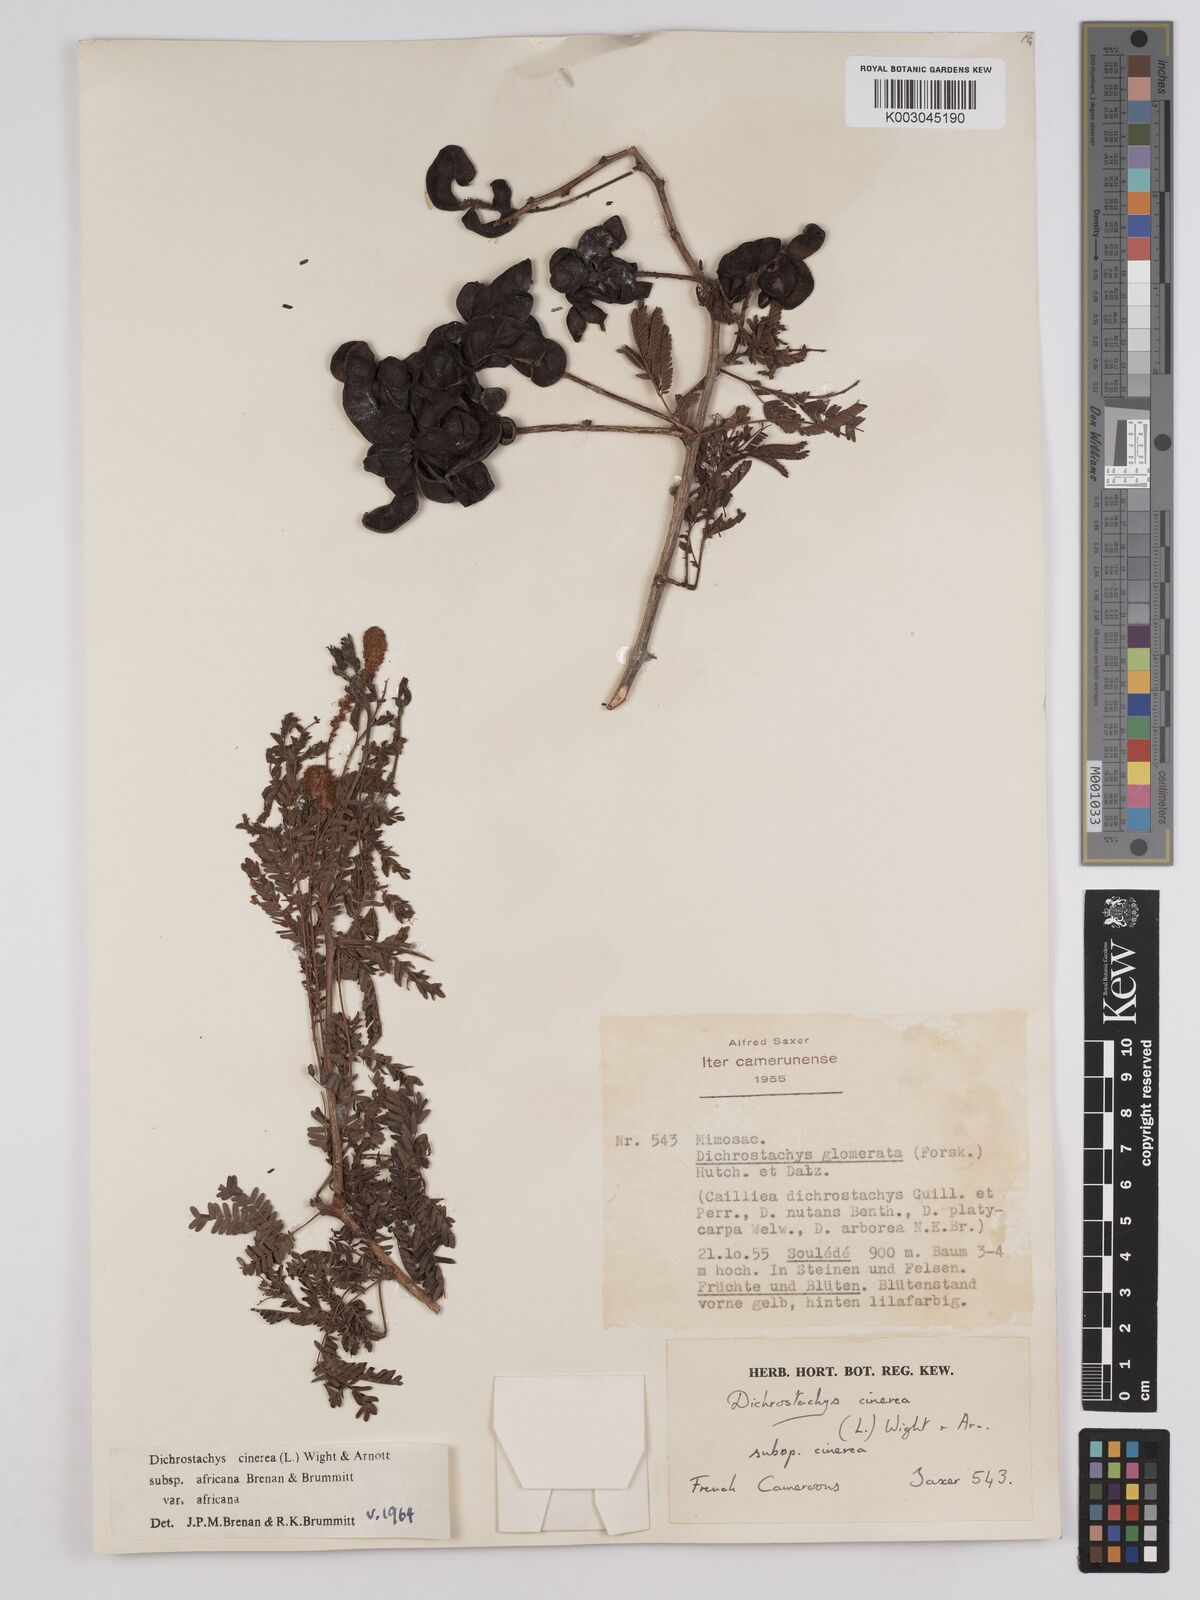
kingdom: Plantae
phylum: Tracheophyta
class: Magnoliopsida
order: Fabales
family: Fabaceae
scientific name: Fabaceae
